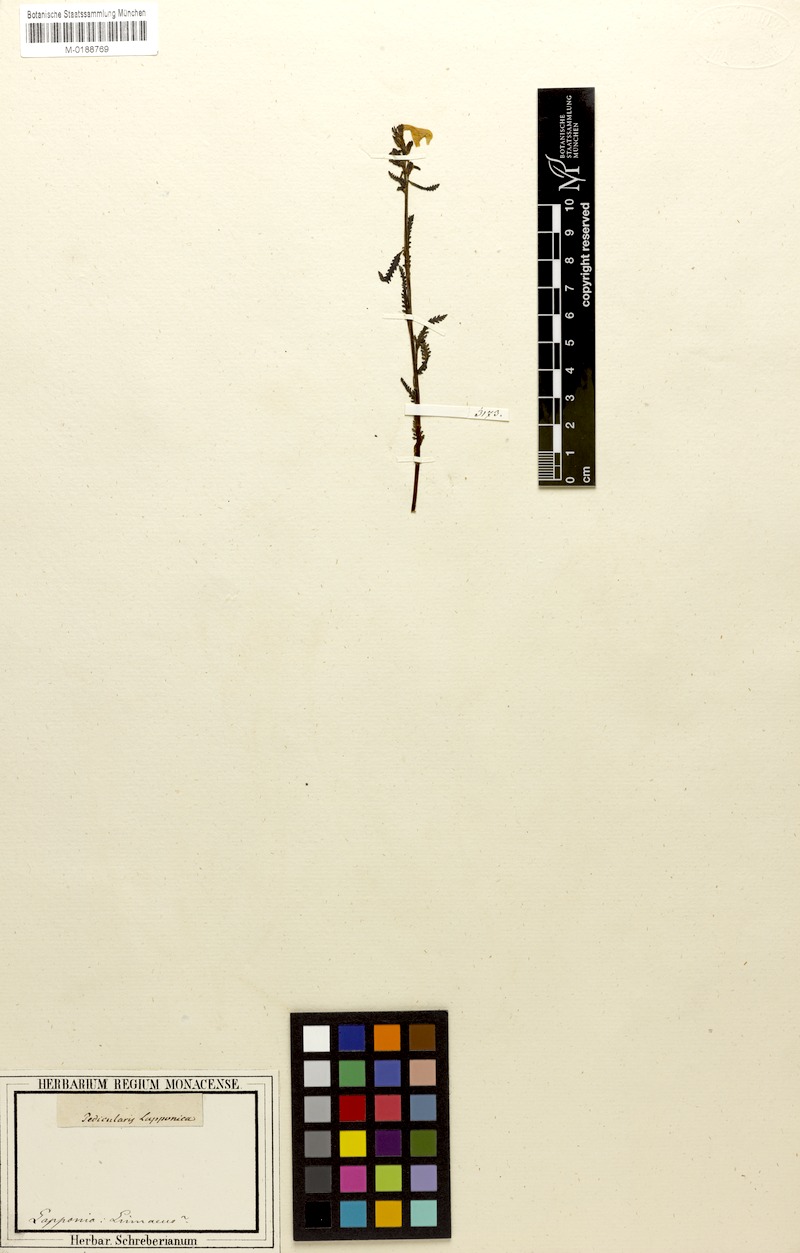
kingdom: Plantae
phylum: Tracheophyta
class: Magnoliopsida
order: Lamiales
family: Orobanchaceae
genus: Pedicularis
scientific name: Pedicularis lapponica
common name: Lapland lousewort
